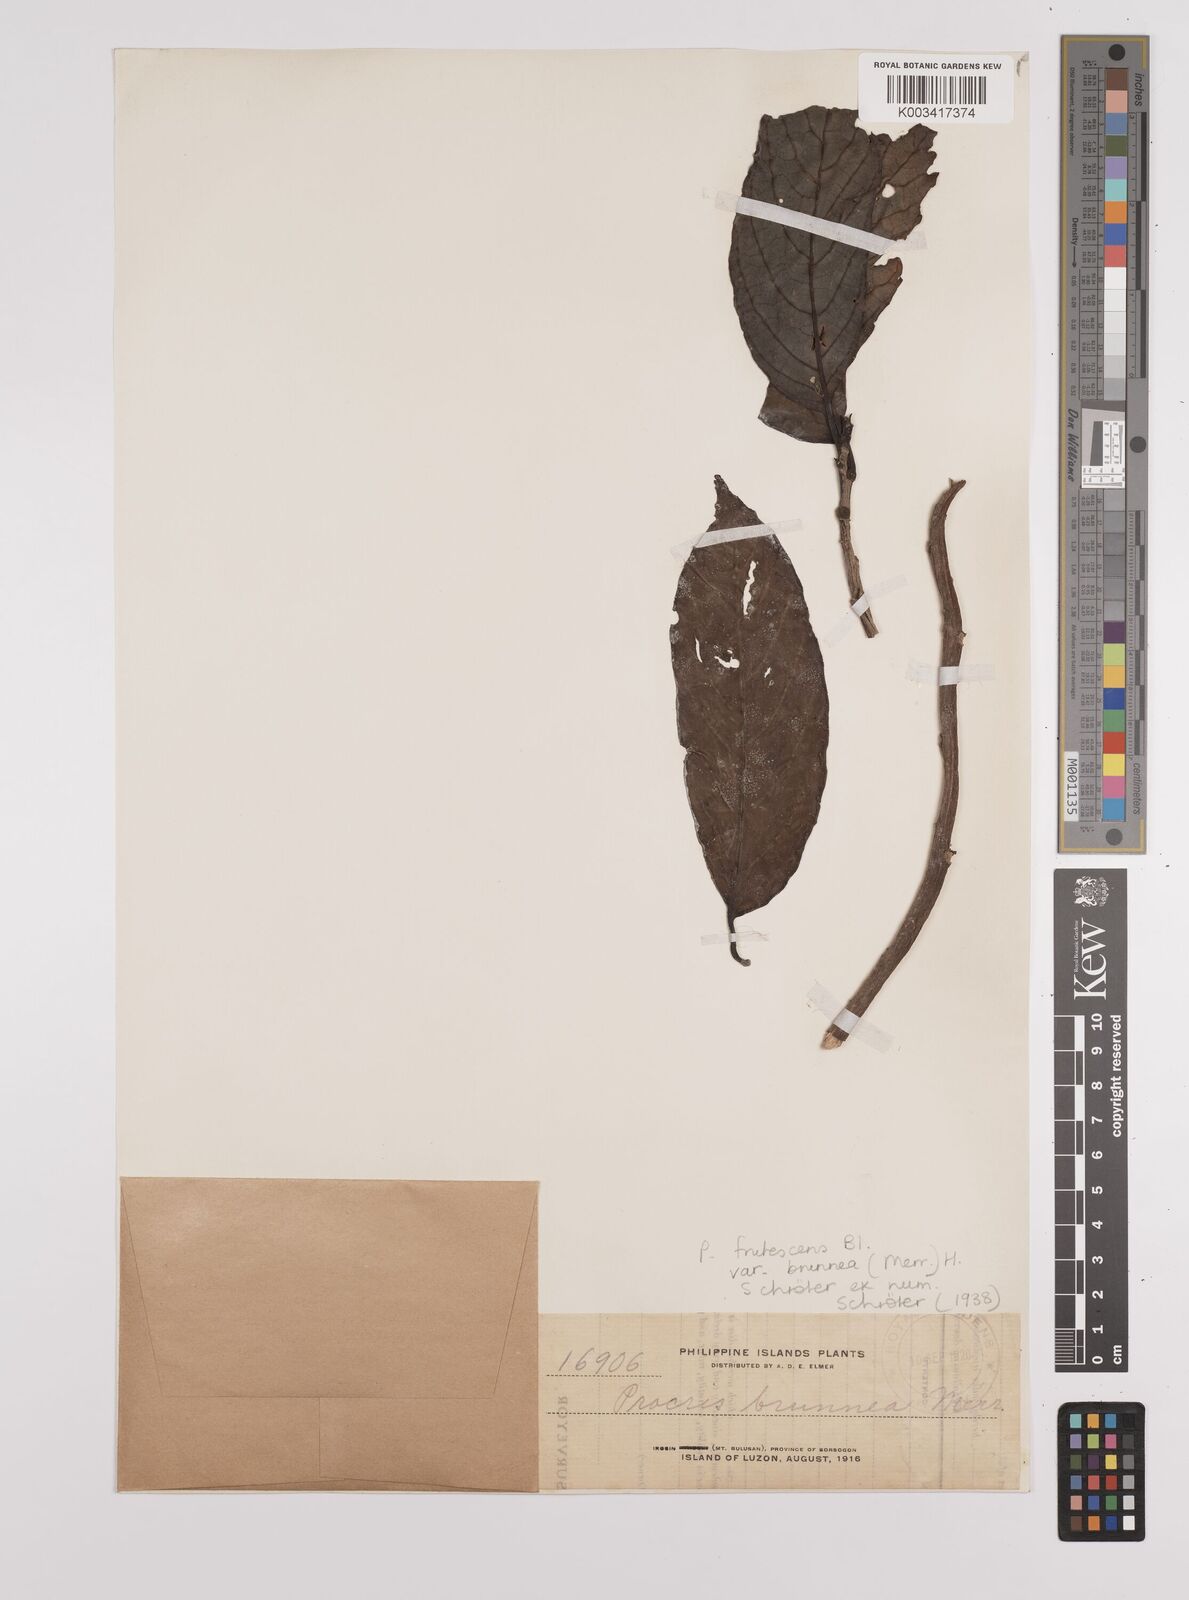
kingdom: Plantae
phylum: Tracheophyta
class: Magnoliopsida
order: Rosales
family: Urticaceae
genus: Procris
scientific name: Procris frutescens
